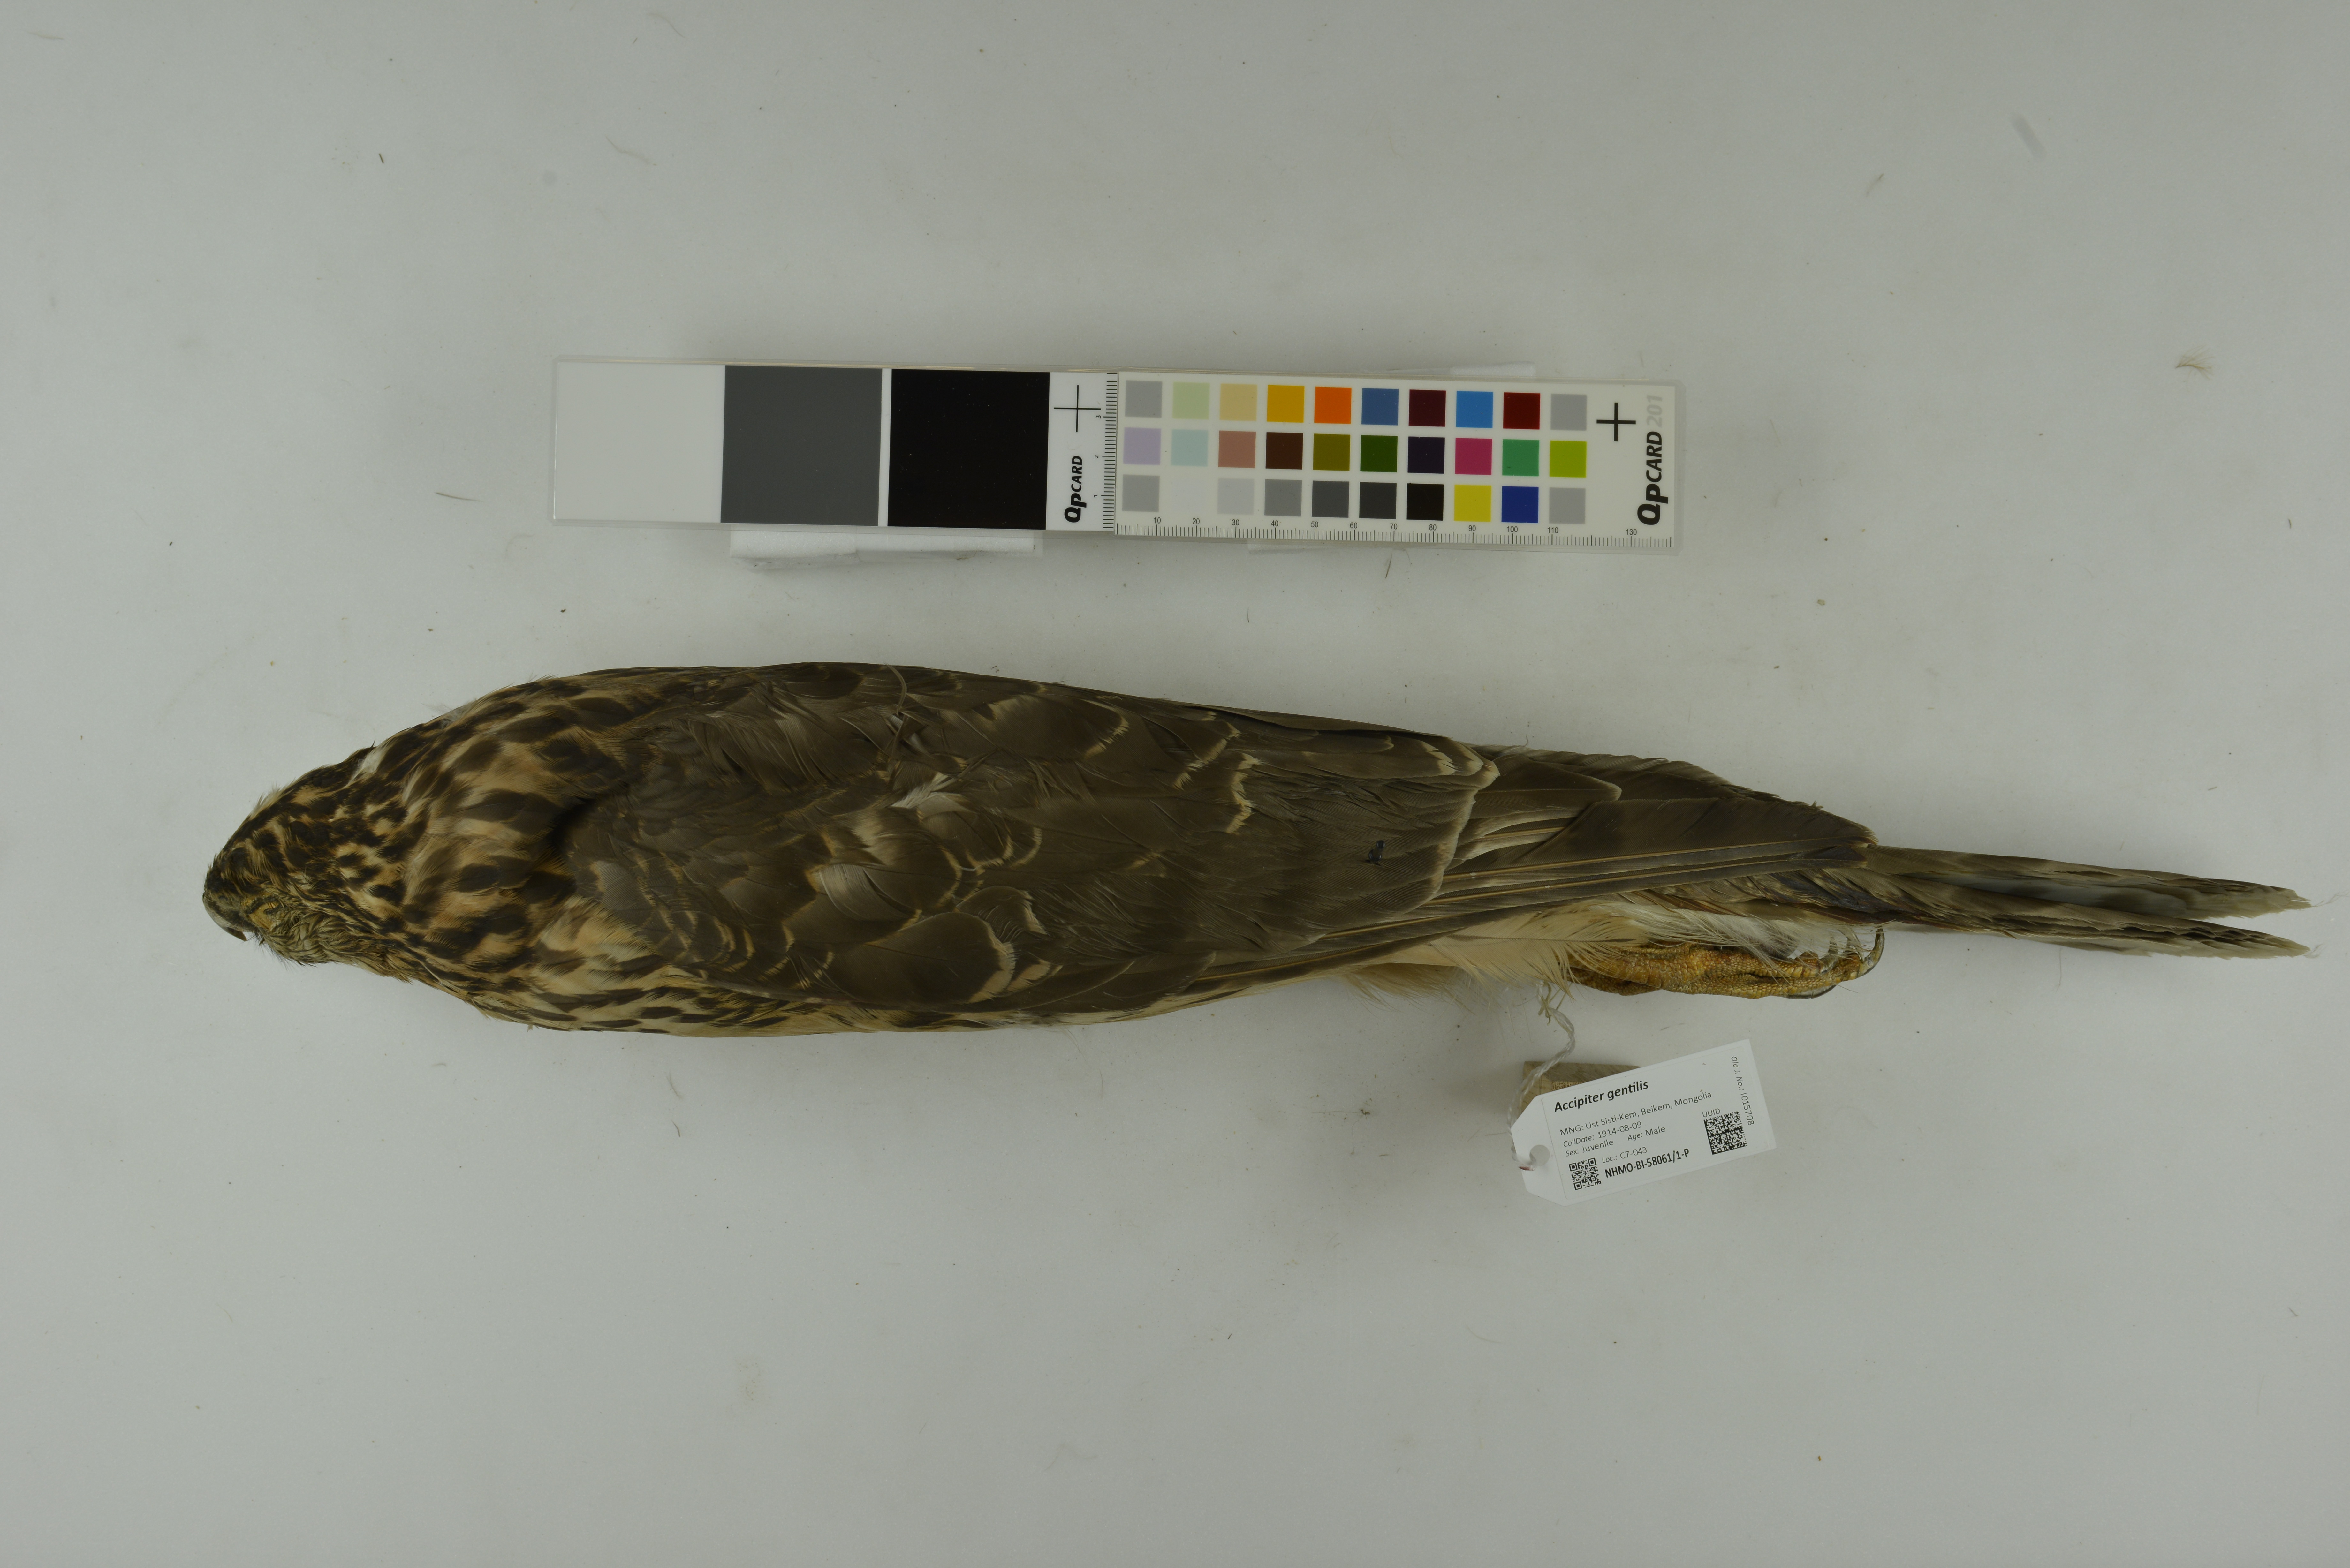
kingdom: Animalia
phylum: Chordata
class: Aves
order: Accipitriformes
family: Accipitridae
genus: Accipiter
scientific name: Accipiter gentilis
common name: Northern goshawk
